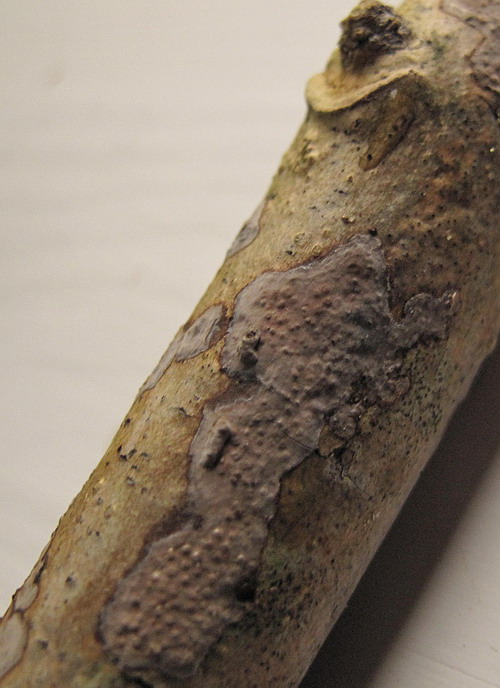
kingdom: Fungi
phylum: Basidiomycota
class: Agaricomycetes
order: Russulales
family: Peniophoraceae
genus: Peniophora
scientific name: Peniophora limitata
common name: mørkrandet voksskind
